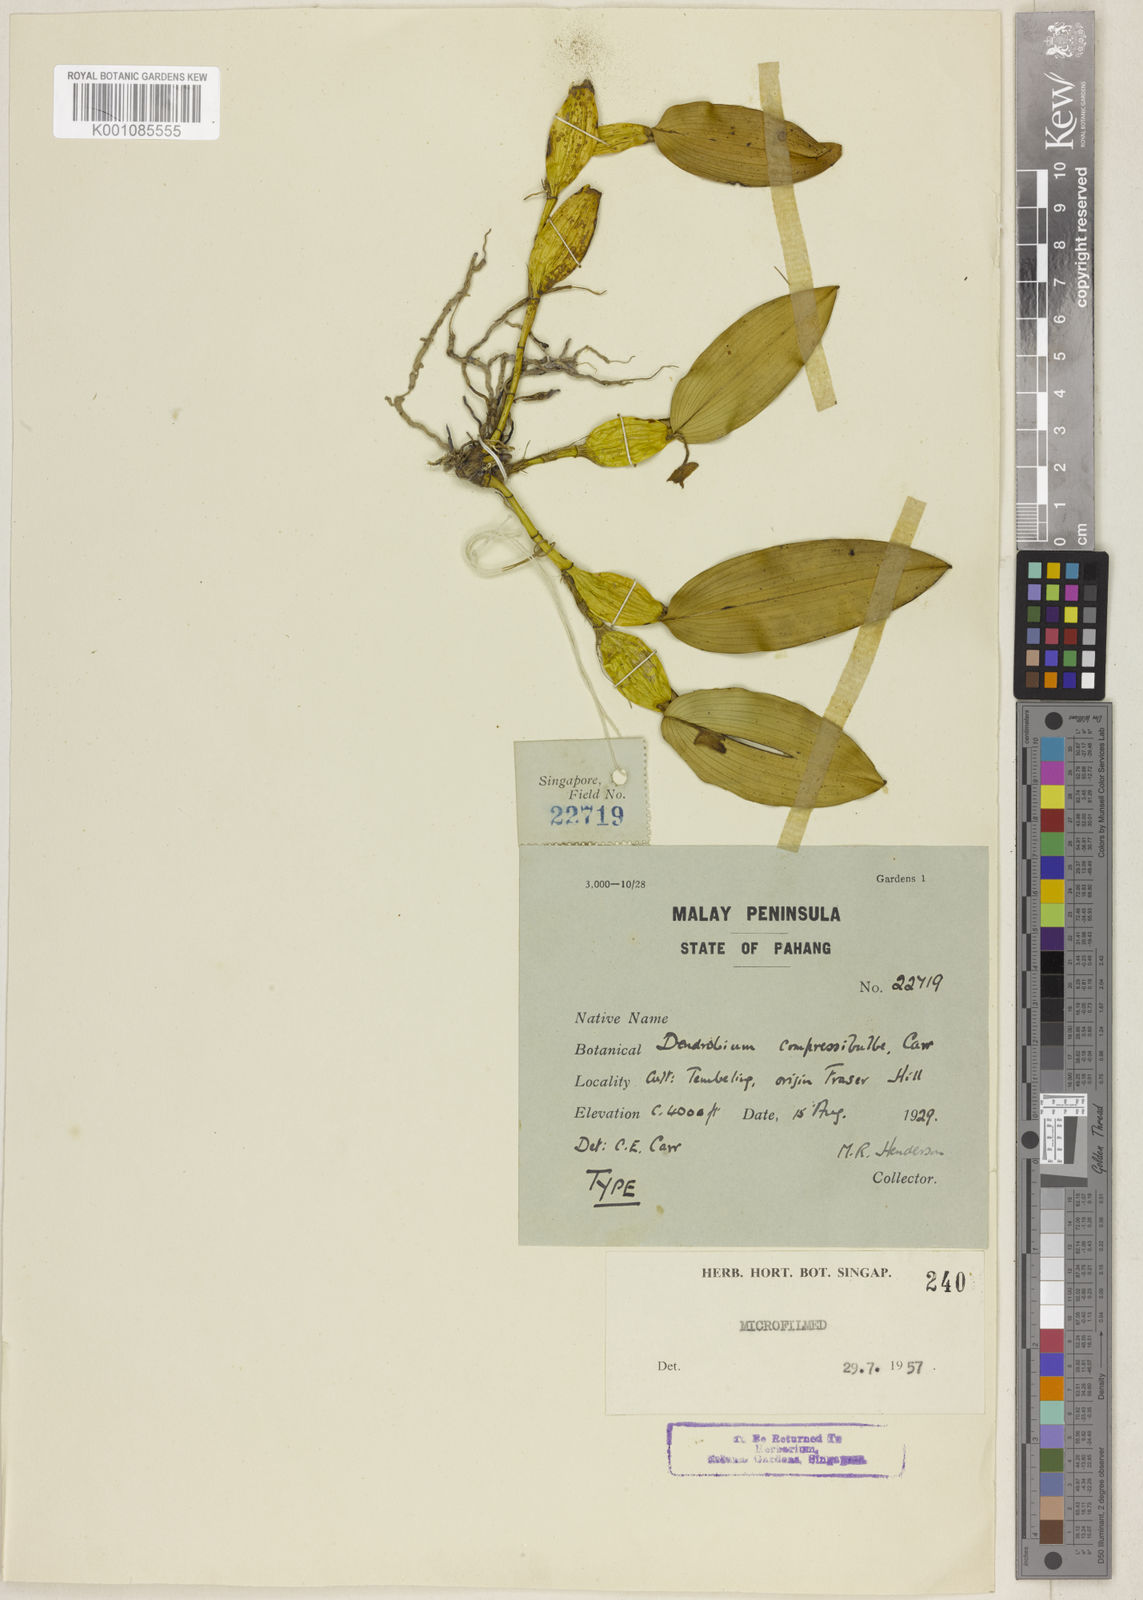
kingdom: Plantae
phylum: Tracheophyta
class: Liliopsida
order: Asparagales
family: Orchidaceae
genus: Dendrobium
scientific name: Dendrobium padangense
